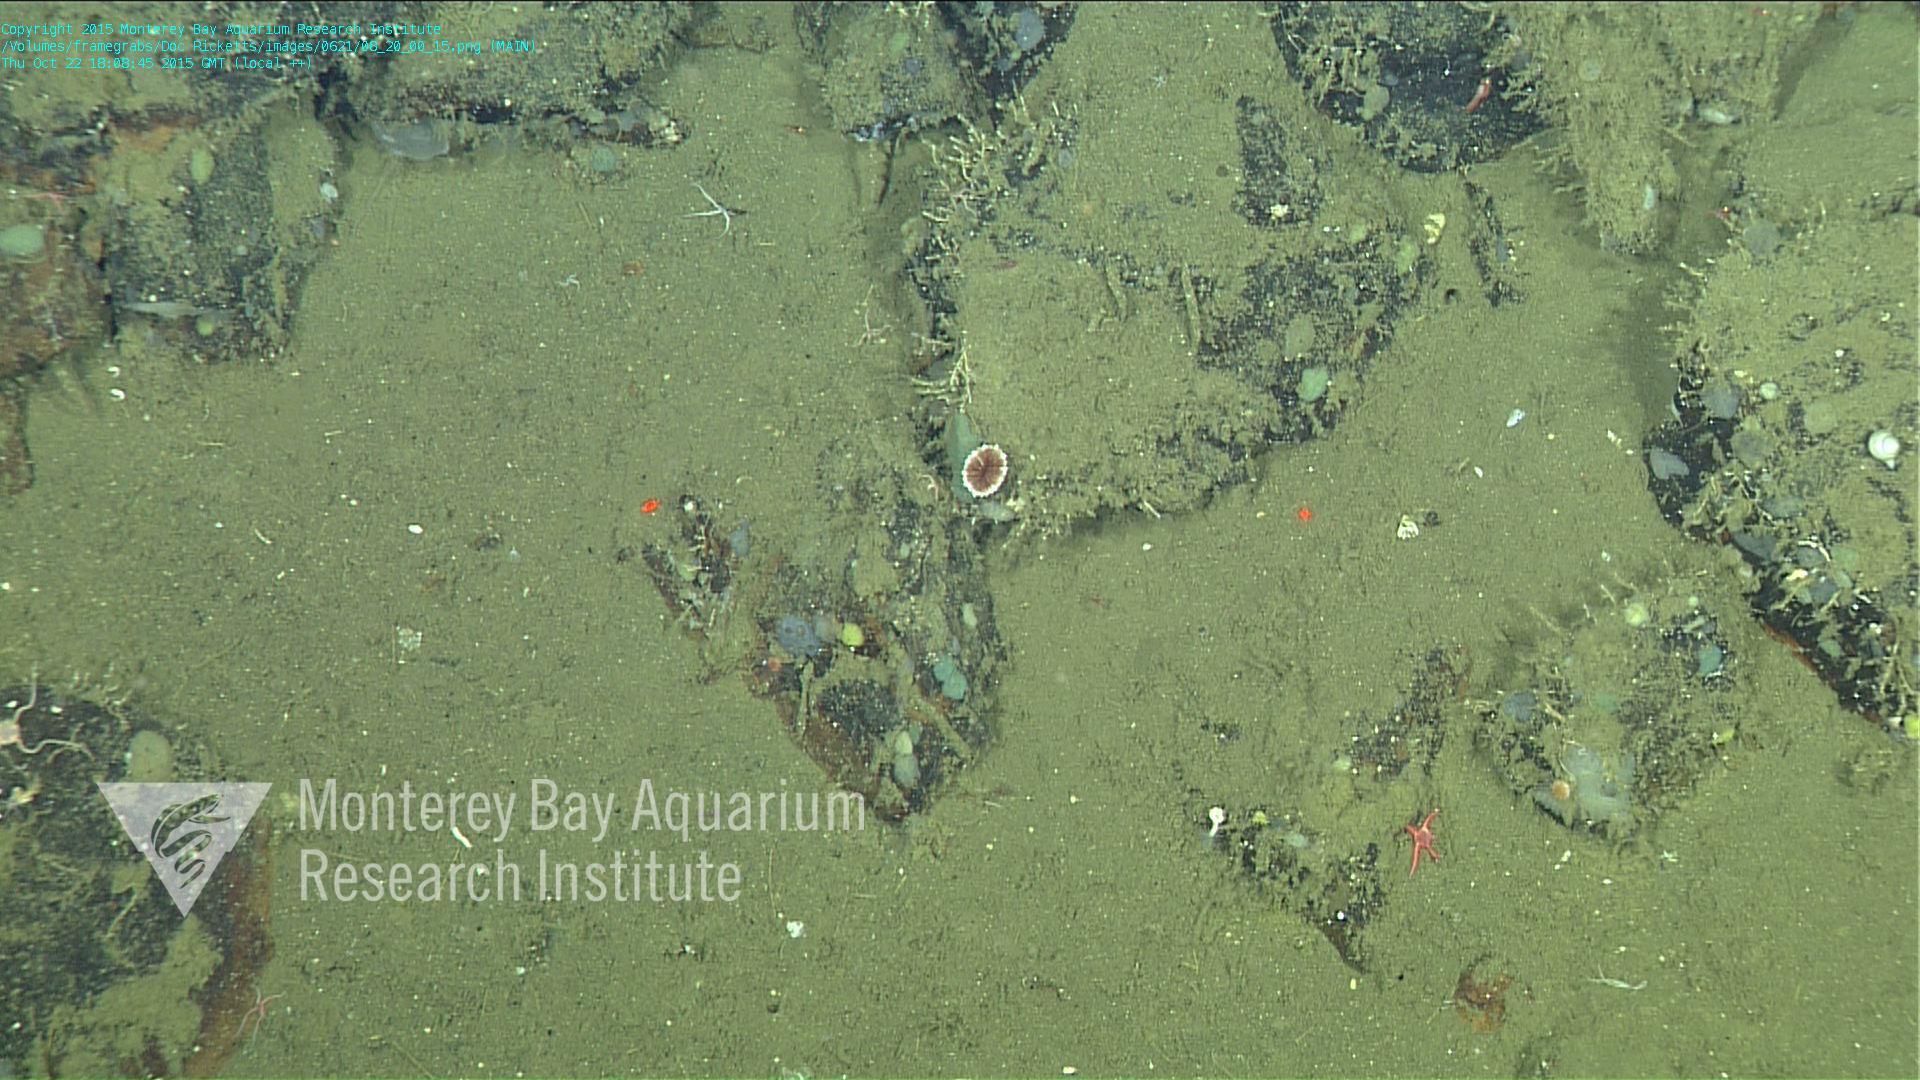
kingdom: Animalia
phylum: Cnidaria
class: Anthozoa
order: Scleractinia
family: Caryophylliidae
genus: Desmophyllum
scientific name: Desmophyllum dianthus
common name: Cockscomb cup coral
